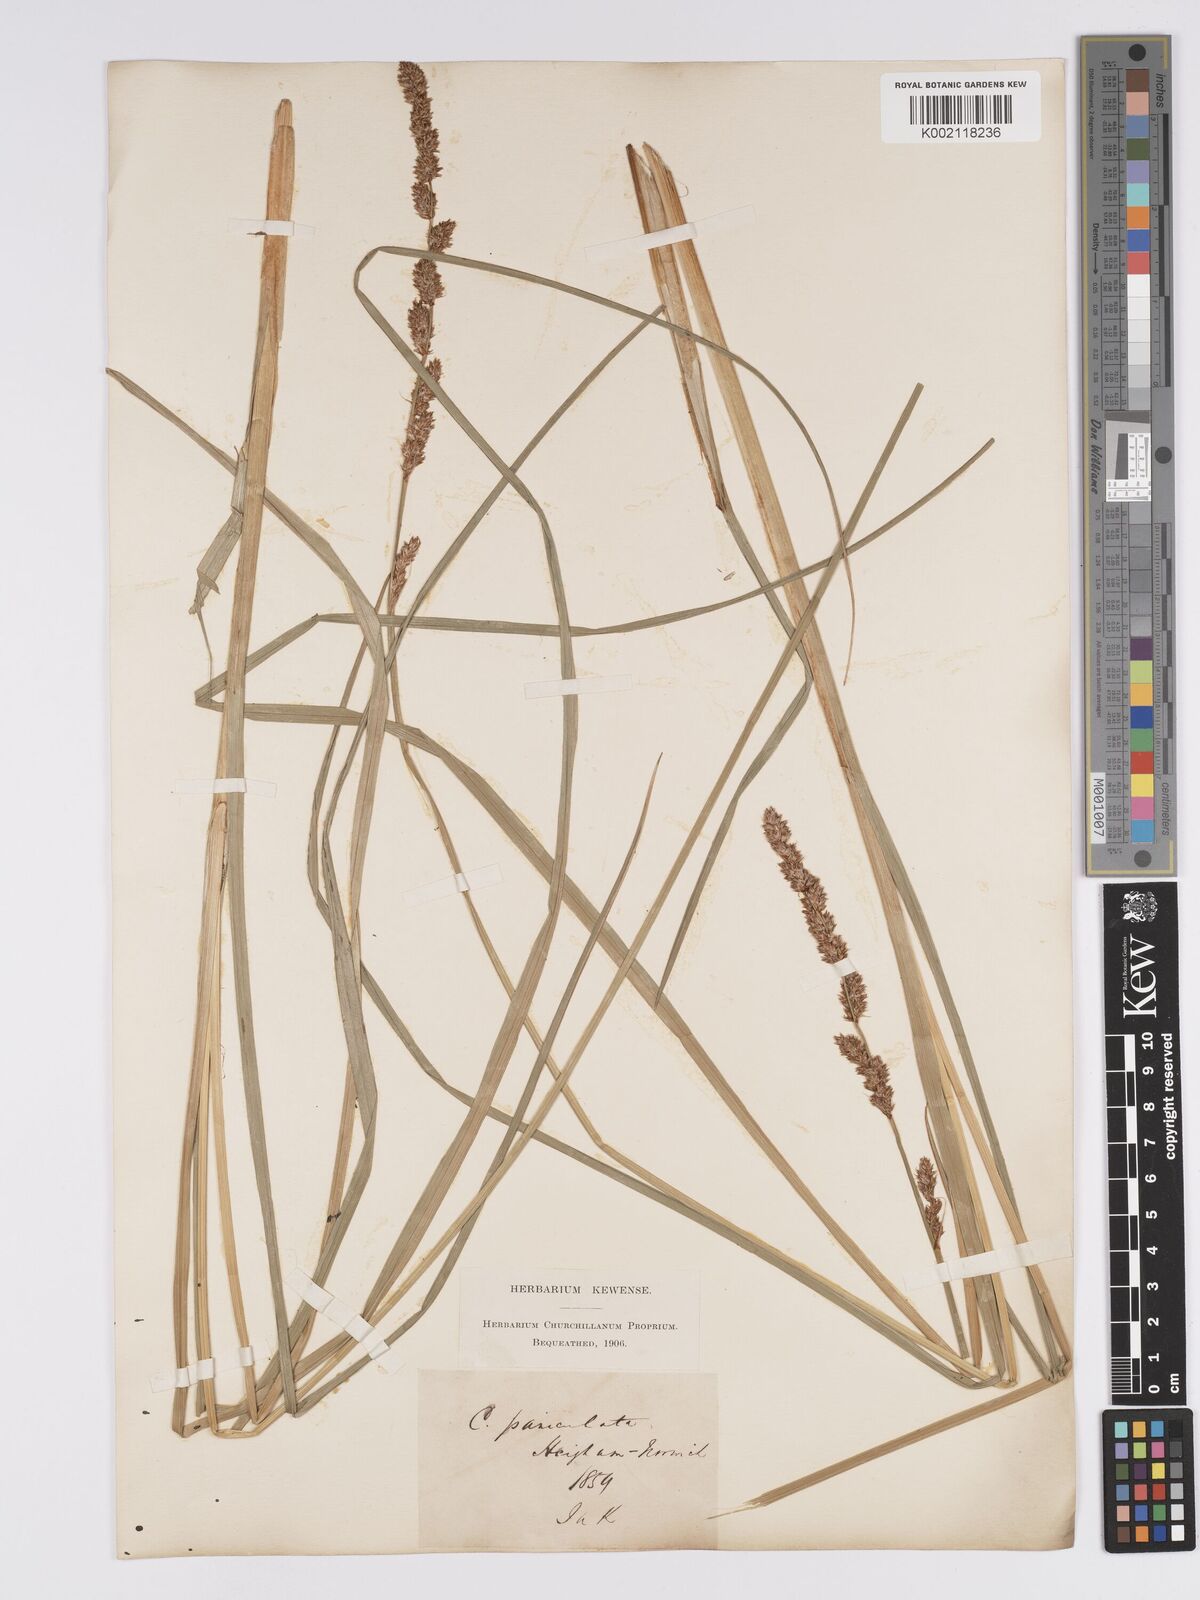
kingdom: Plantae
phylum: Tracheophyta
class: Liliopsida
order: Poales
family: Cyperaceae
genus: Carex
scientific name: Carex paniculata
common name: Greater tussock-sedge
